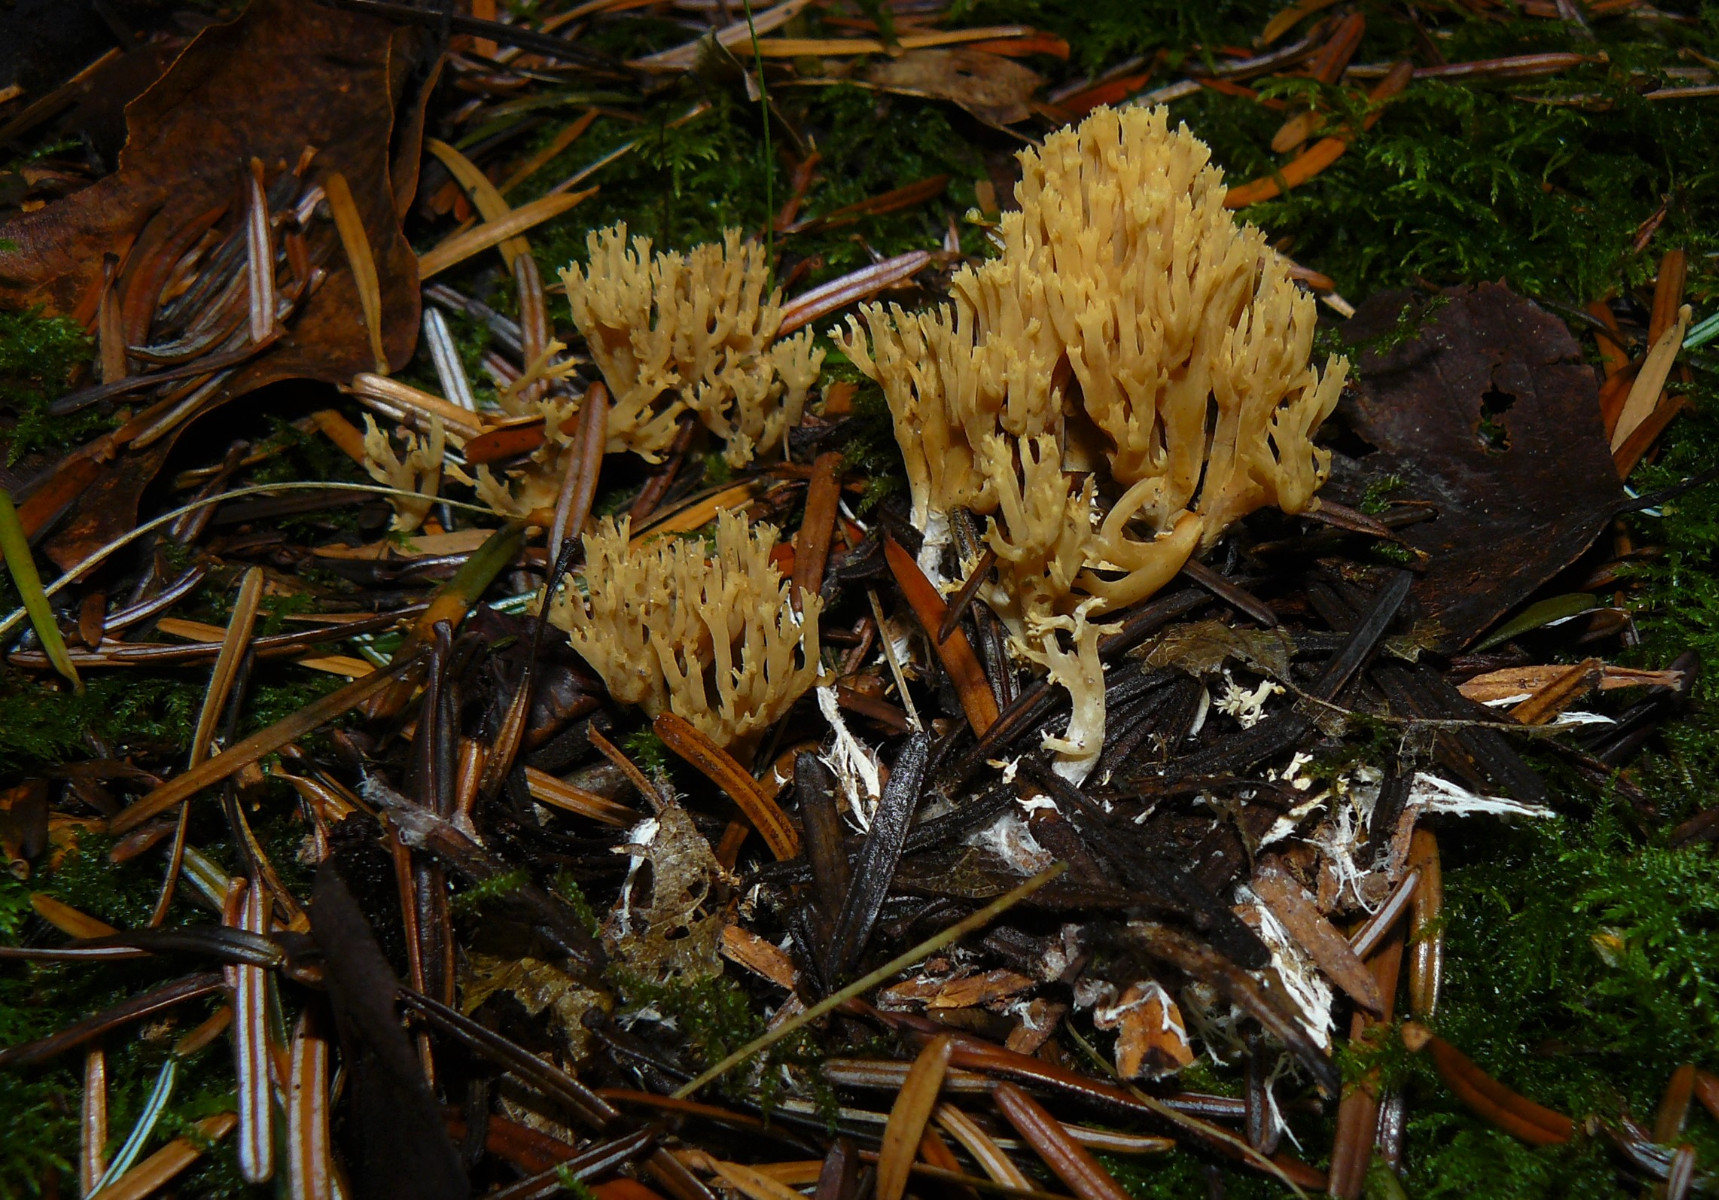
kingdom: Fungi
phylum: Basidiomycota
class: Agaricomycetes
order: Gomphales
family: Gomphaceae
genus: Phaeoclavulina
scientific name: Phaeoclavulina eumorpha
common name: gran-koralsvamp
